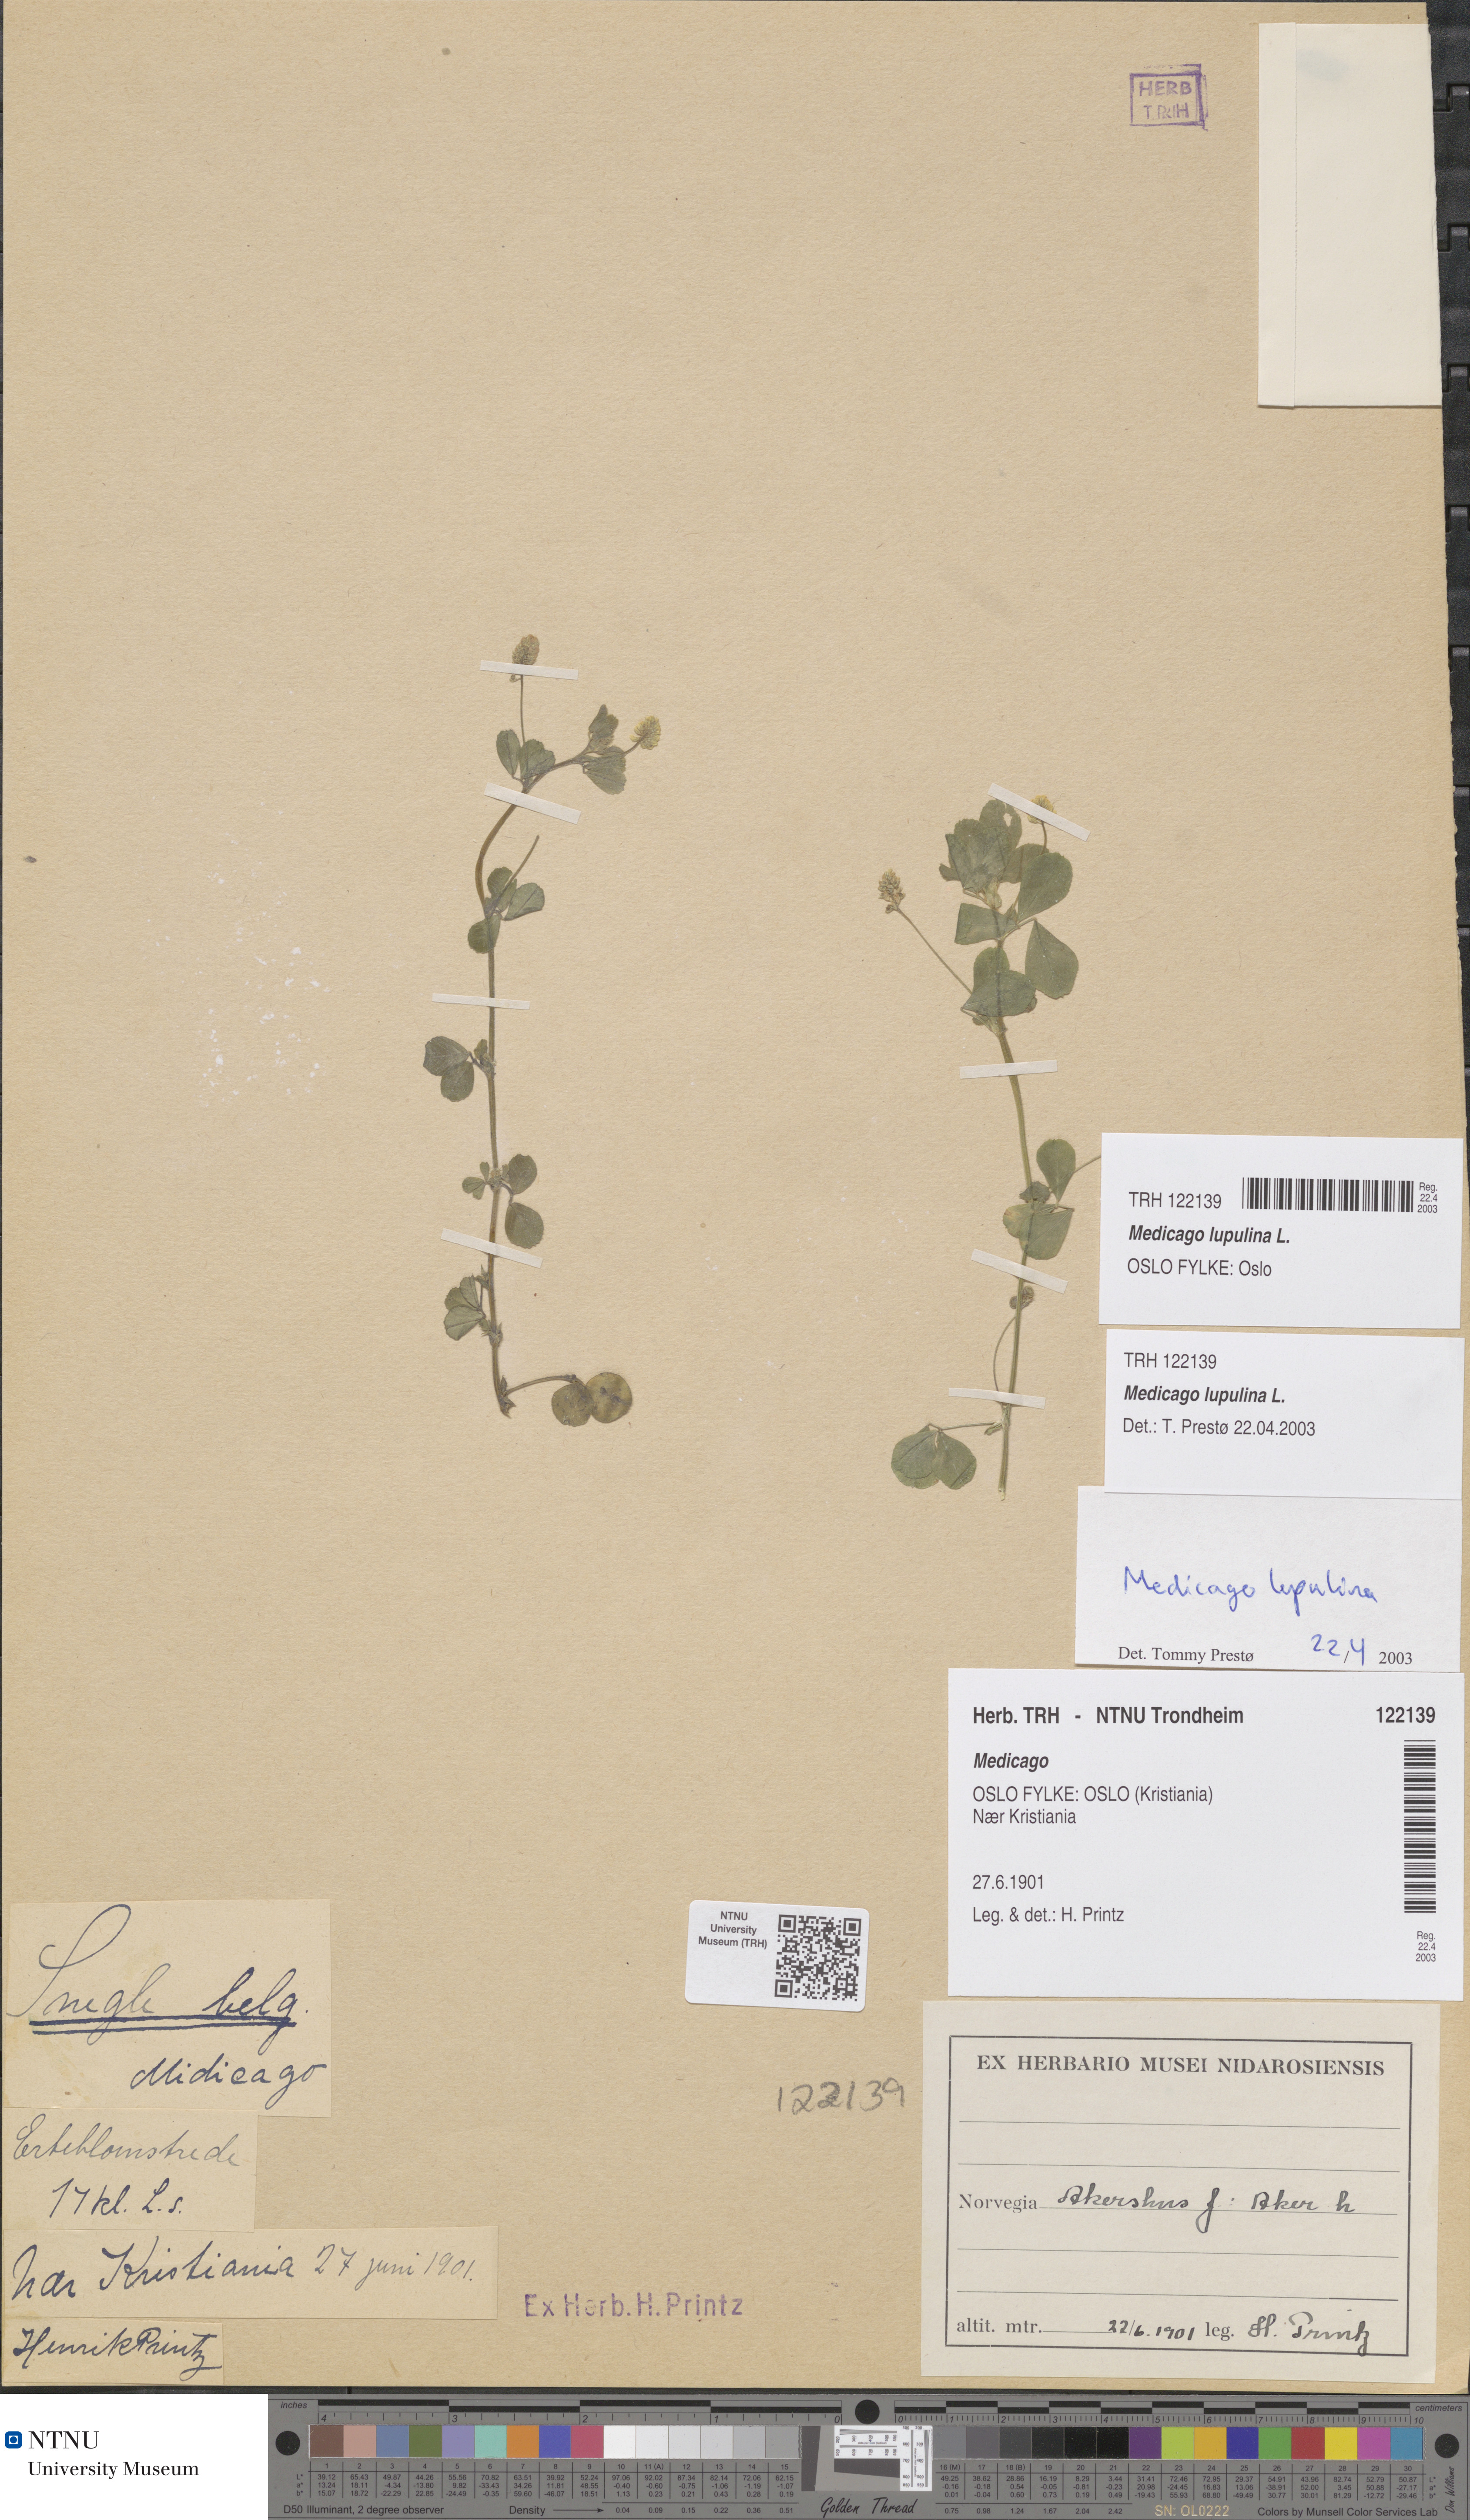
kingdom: Plantae
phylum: Tracheophyta
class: Magnoliopsida
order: Fabales
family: Fabaceae
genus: Medicago
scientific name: Medicago lupulina
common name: Black medick
